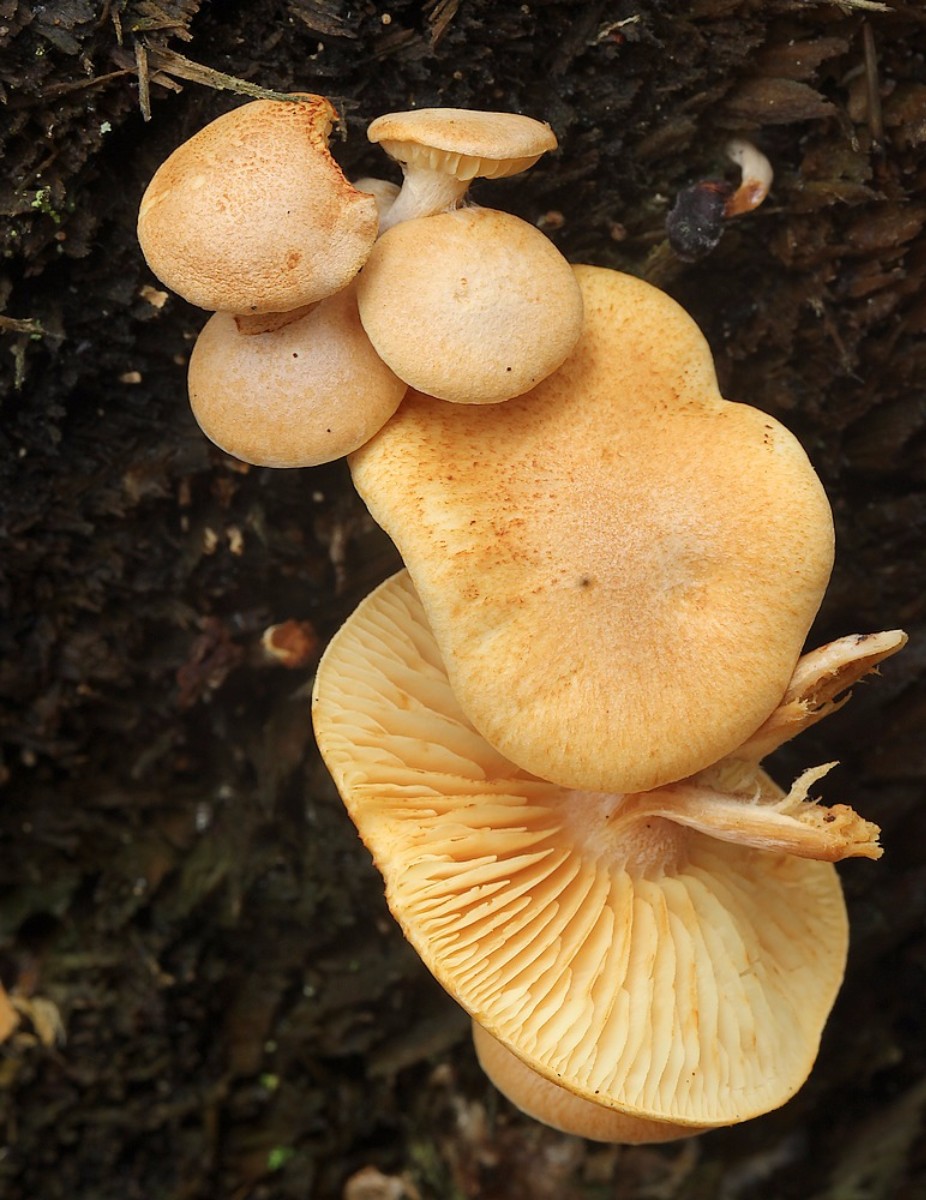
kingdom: Fungi
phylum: Basidiomycota
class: Agaricomycetes
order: Agaricales
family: Hymenogastraceae
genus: Gymnopilus
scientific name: Gymnopilus penetrans
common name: plettet flammehat
